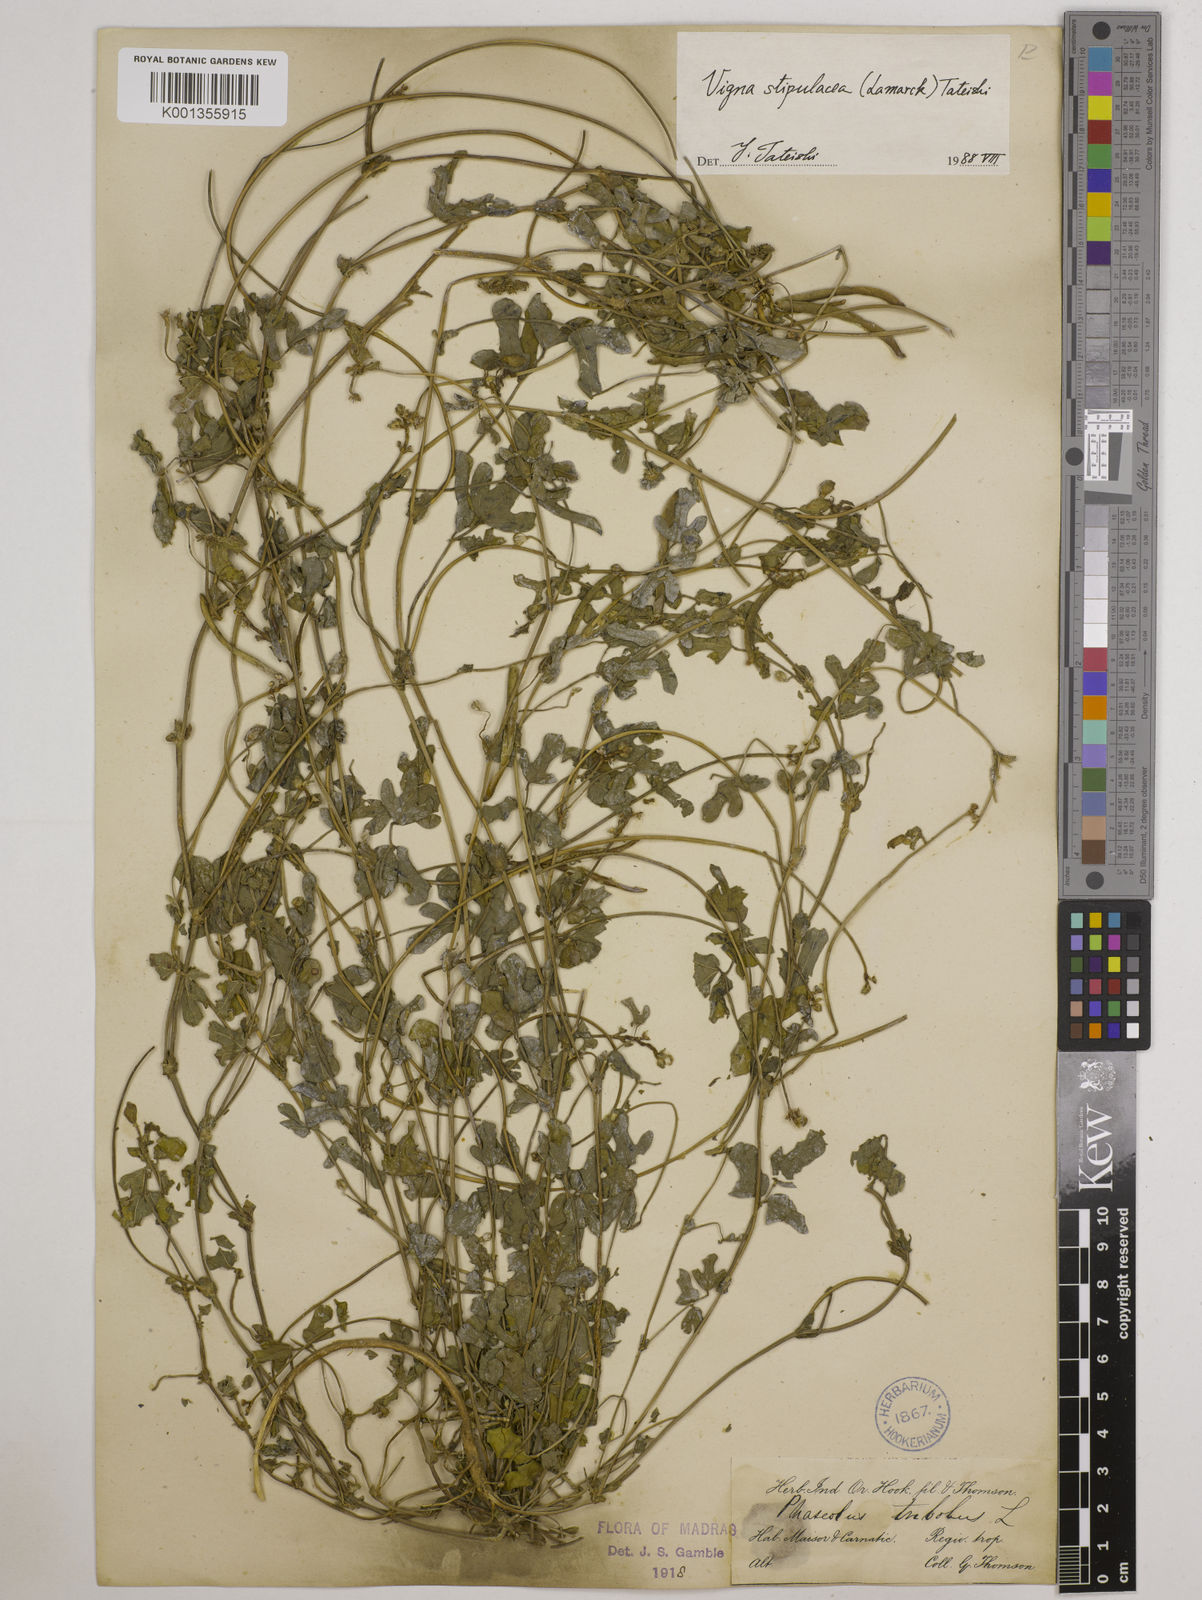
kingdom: Plantae
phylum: Tracheophyta
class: Magnoliopsida
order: Fabales
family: Fabaceae
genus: Pueraria
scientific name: Pueraria montana
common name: Kudzu
